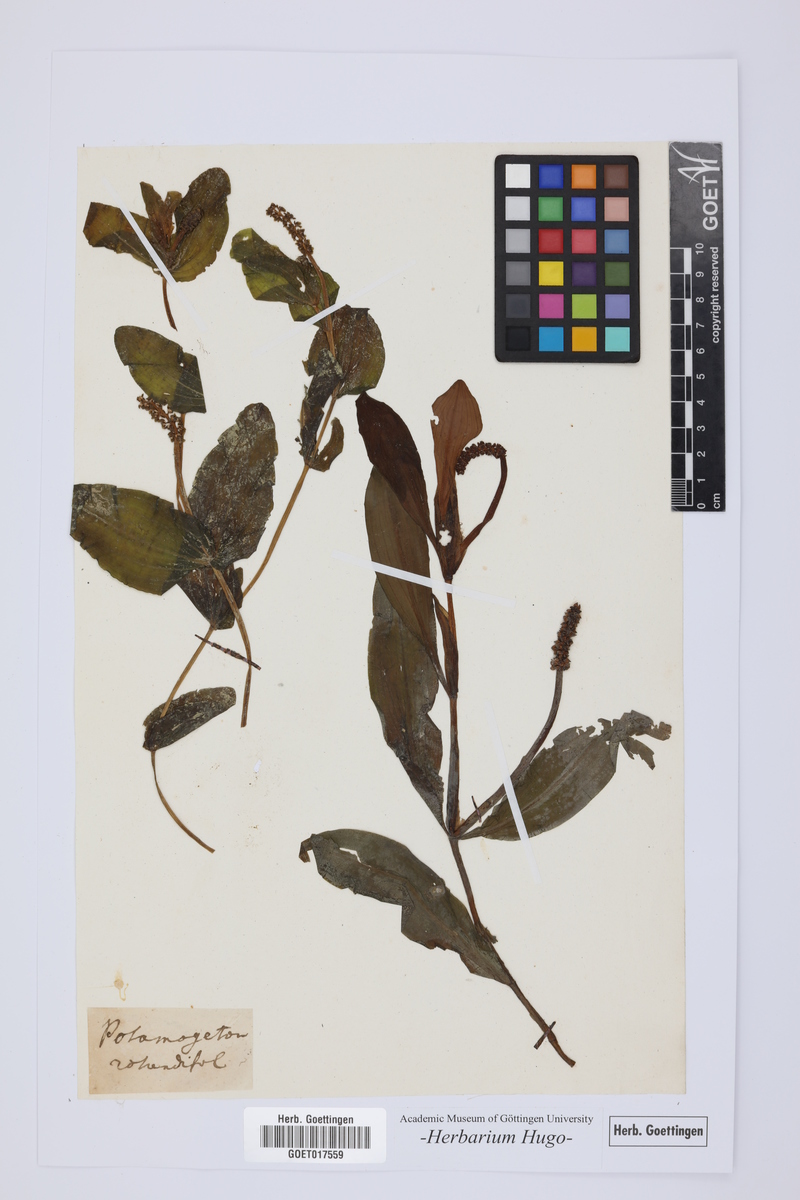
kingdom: Plantae
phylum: Tracheophyta
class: Liliopsida
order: Alismatales
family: Potamogetonaceae
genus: Potamogeton
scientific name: Potamogeton natans
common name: Broad-leaved pondweed
